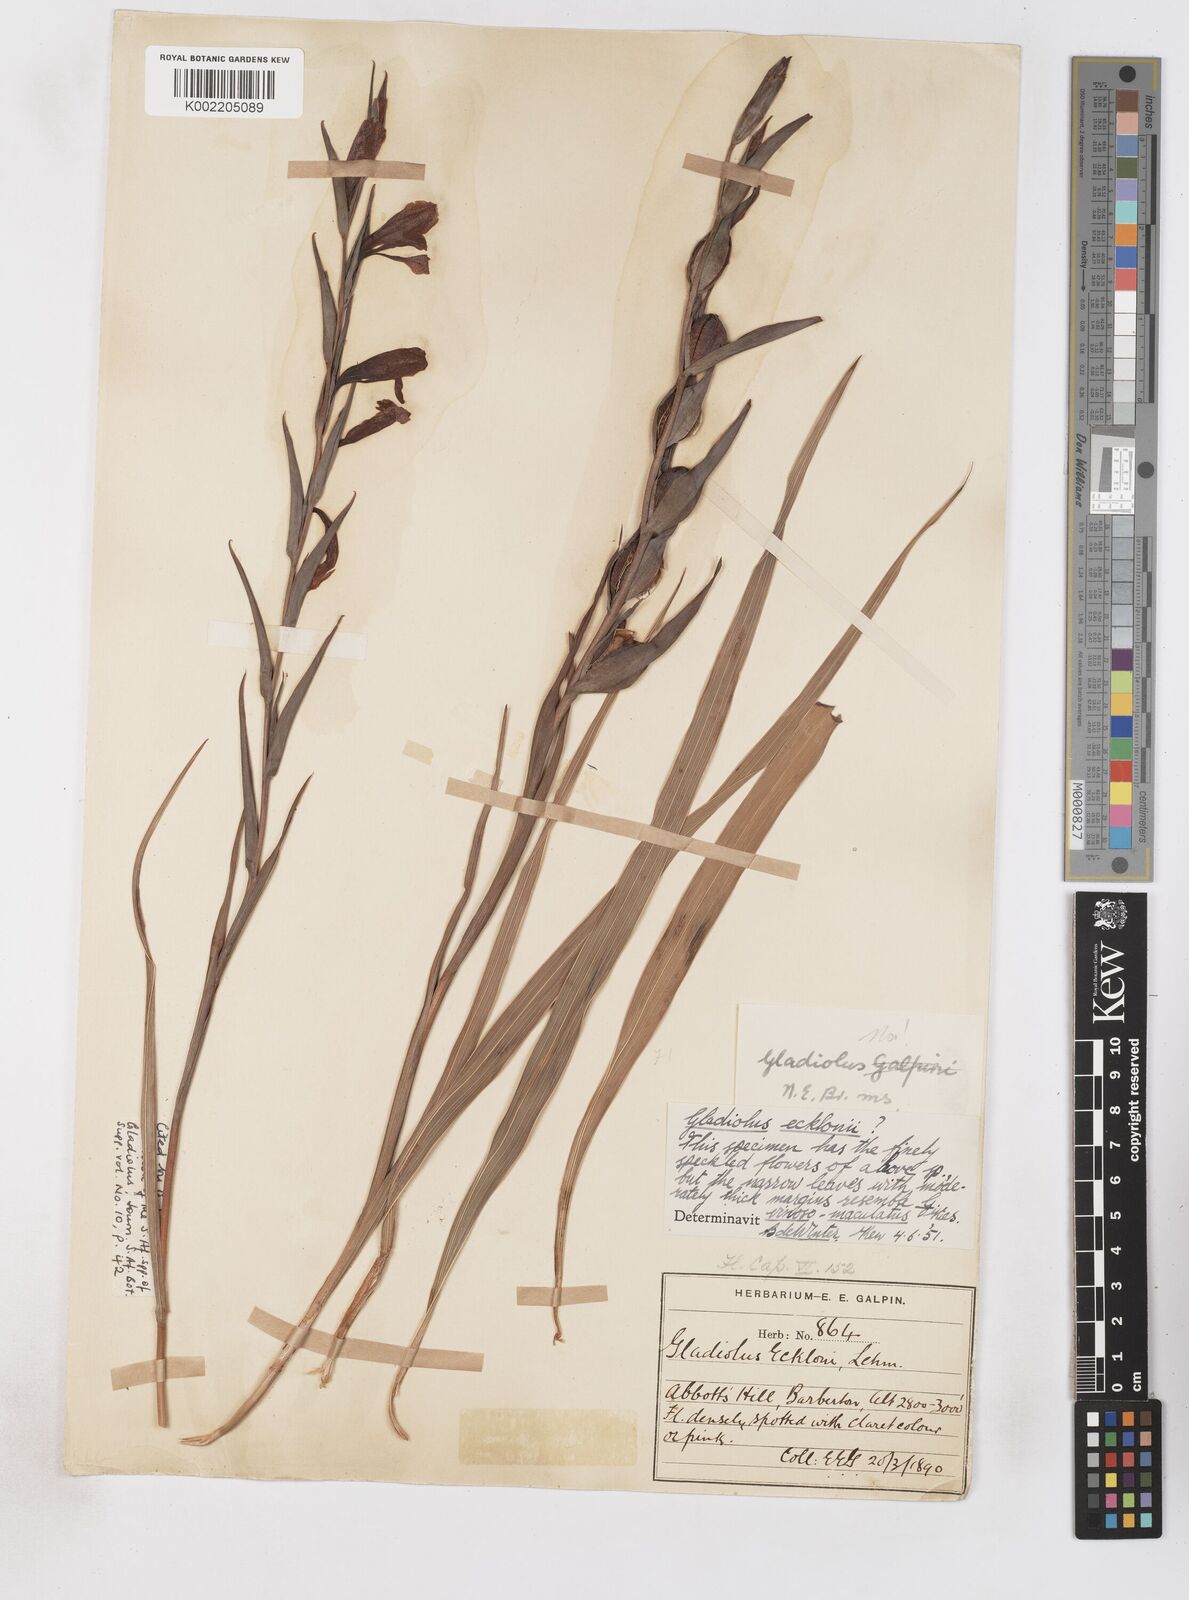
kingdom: Plantae
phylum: Tracheophyta
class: Liliopsida
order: Asparagales
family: Iridaceae
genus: Gladiolus
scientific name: Gladiolus ecklonii
